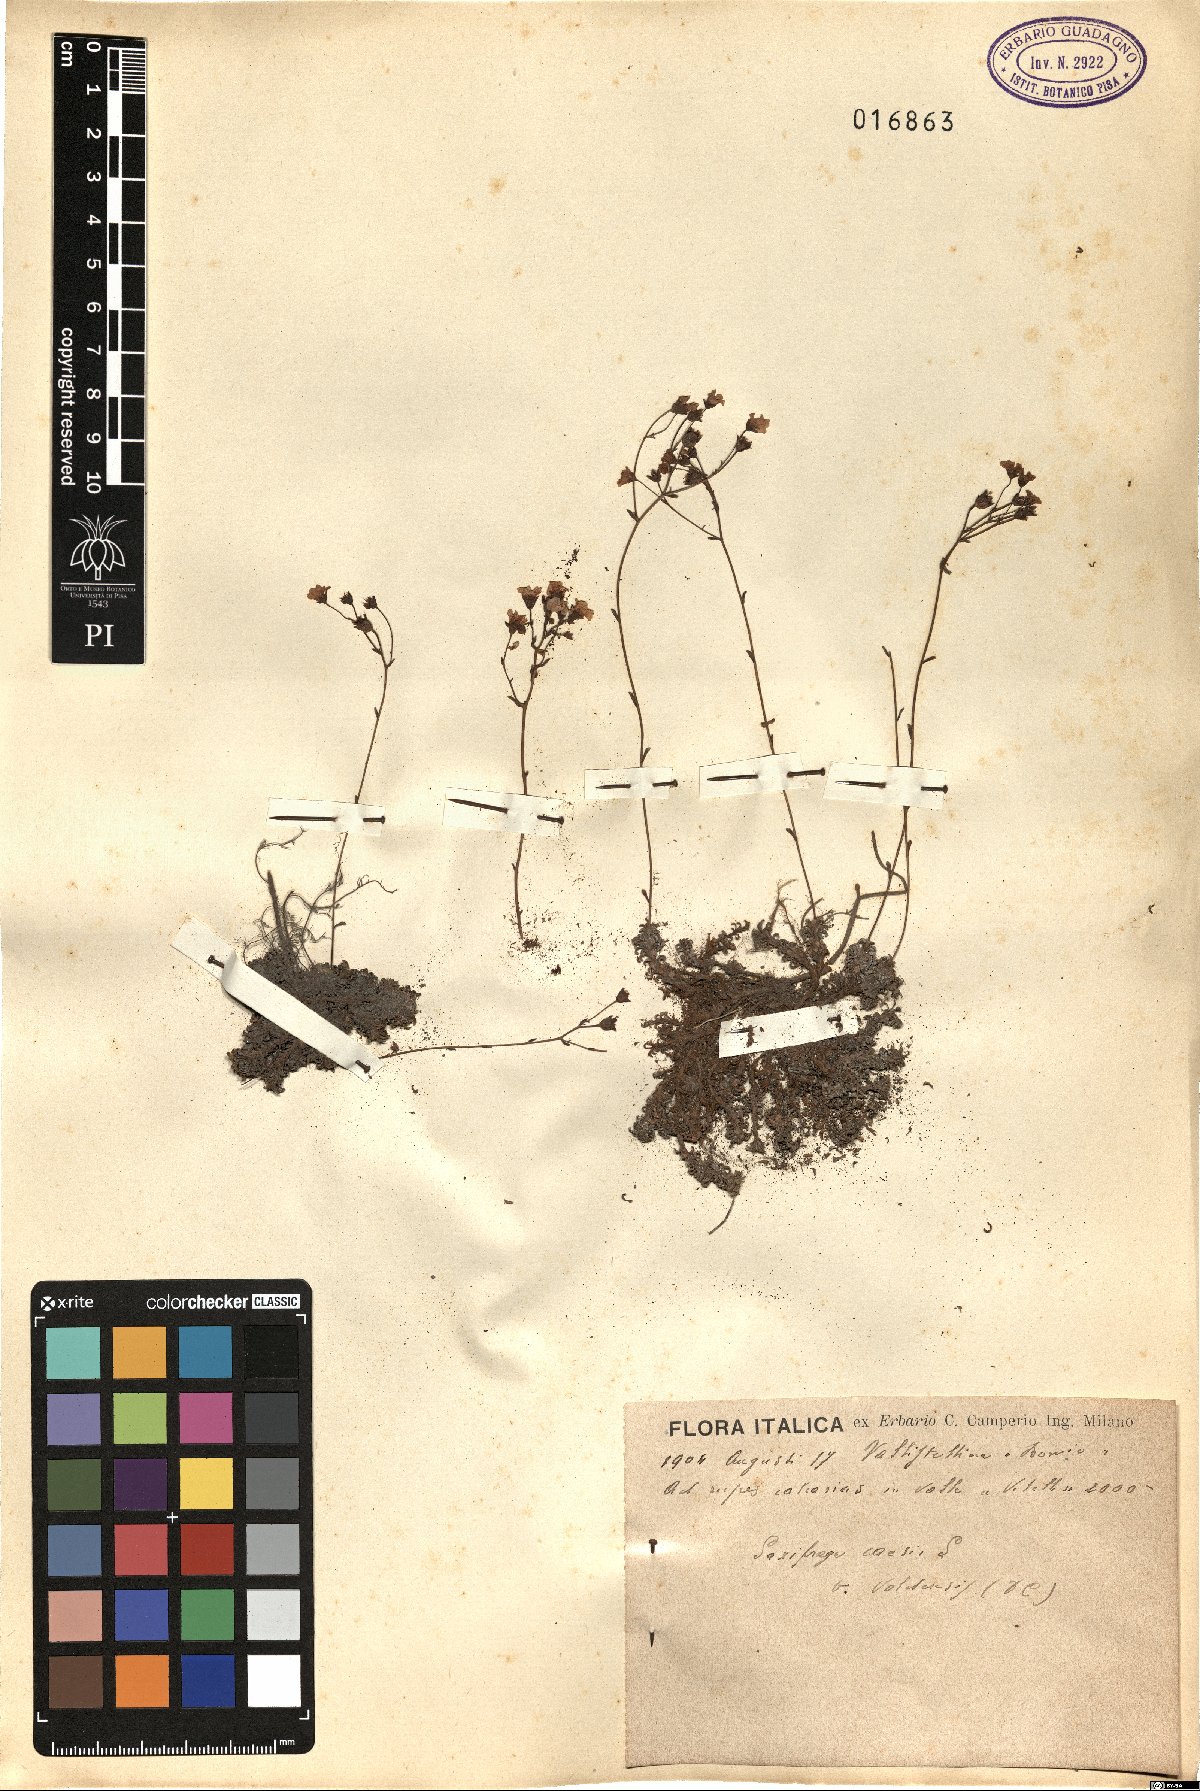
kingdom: Plantae
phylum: Tracheophyta
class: Magnoliopsida
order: Saxifragales
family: Saxifragaceae
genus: Saxifraga
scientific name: Saxifraga caesia
